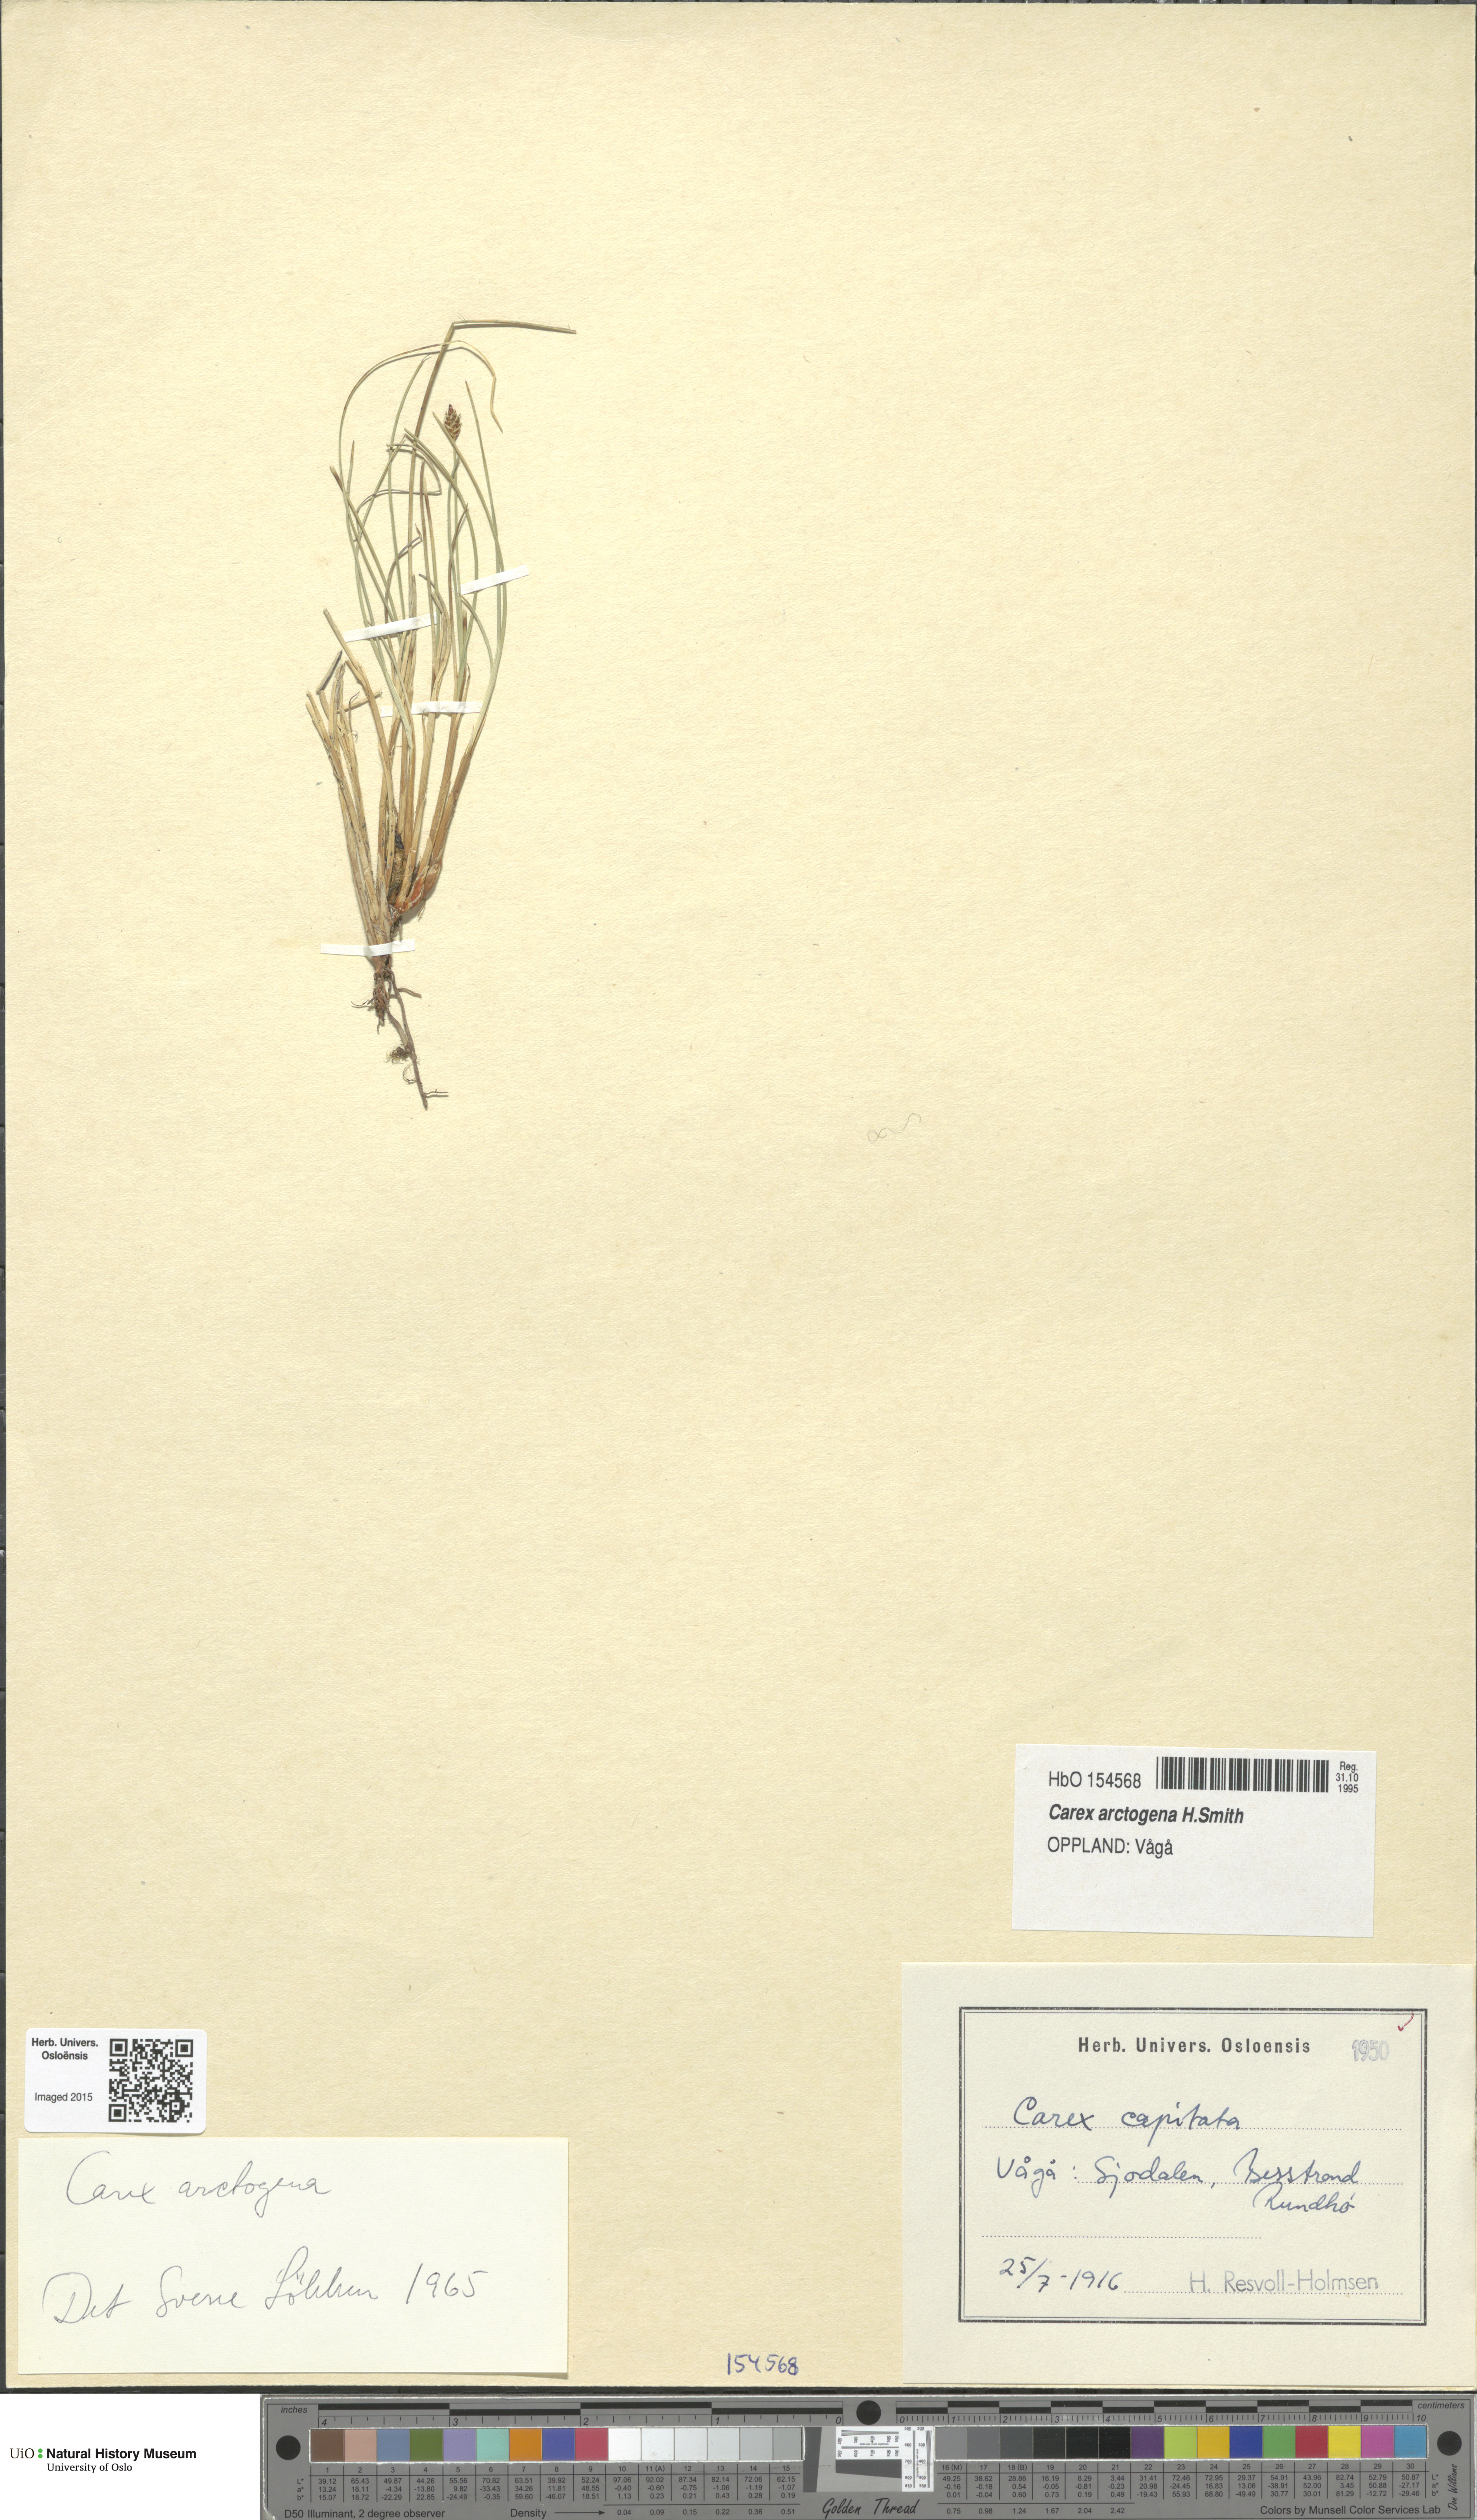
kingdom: Plantae
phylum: Tracheophyta
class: Liliopsida
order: Poales
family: Cyperaceae
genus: Carex
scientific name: Carex arctogena
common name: Black sedge
